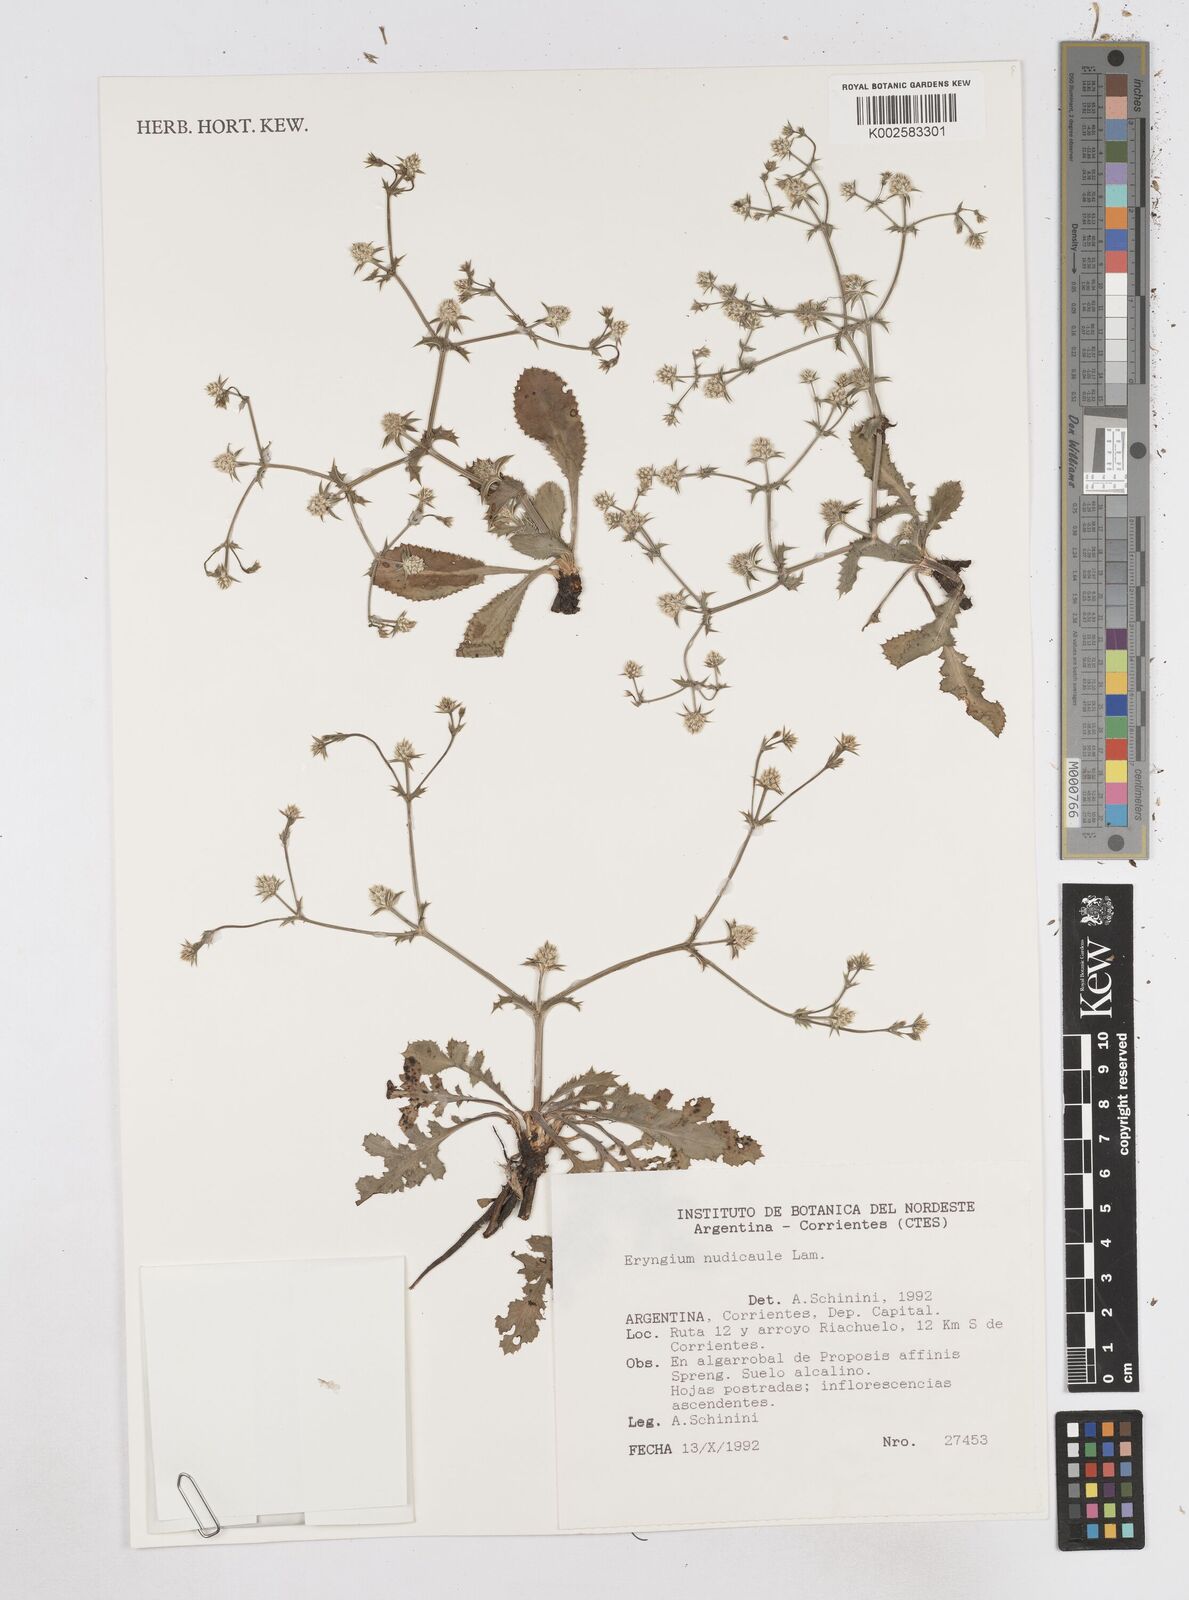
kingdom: Plantae
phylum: Tracheophyta
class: Magnoliopsida
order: Apiales
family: Apiaceae
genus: Eryngium
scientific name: Eryngium nudicaule
